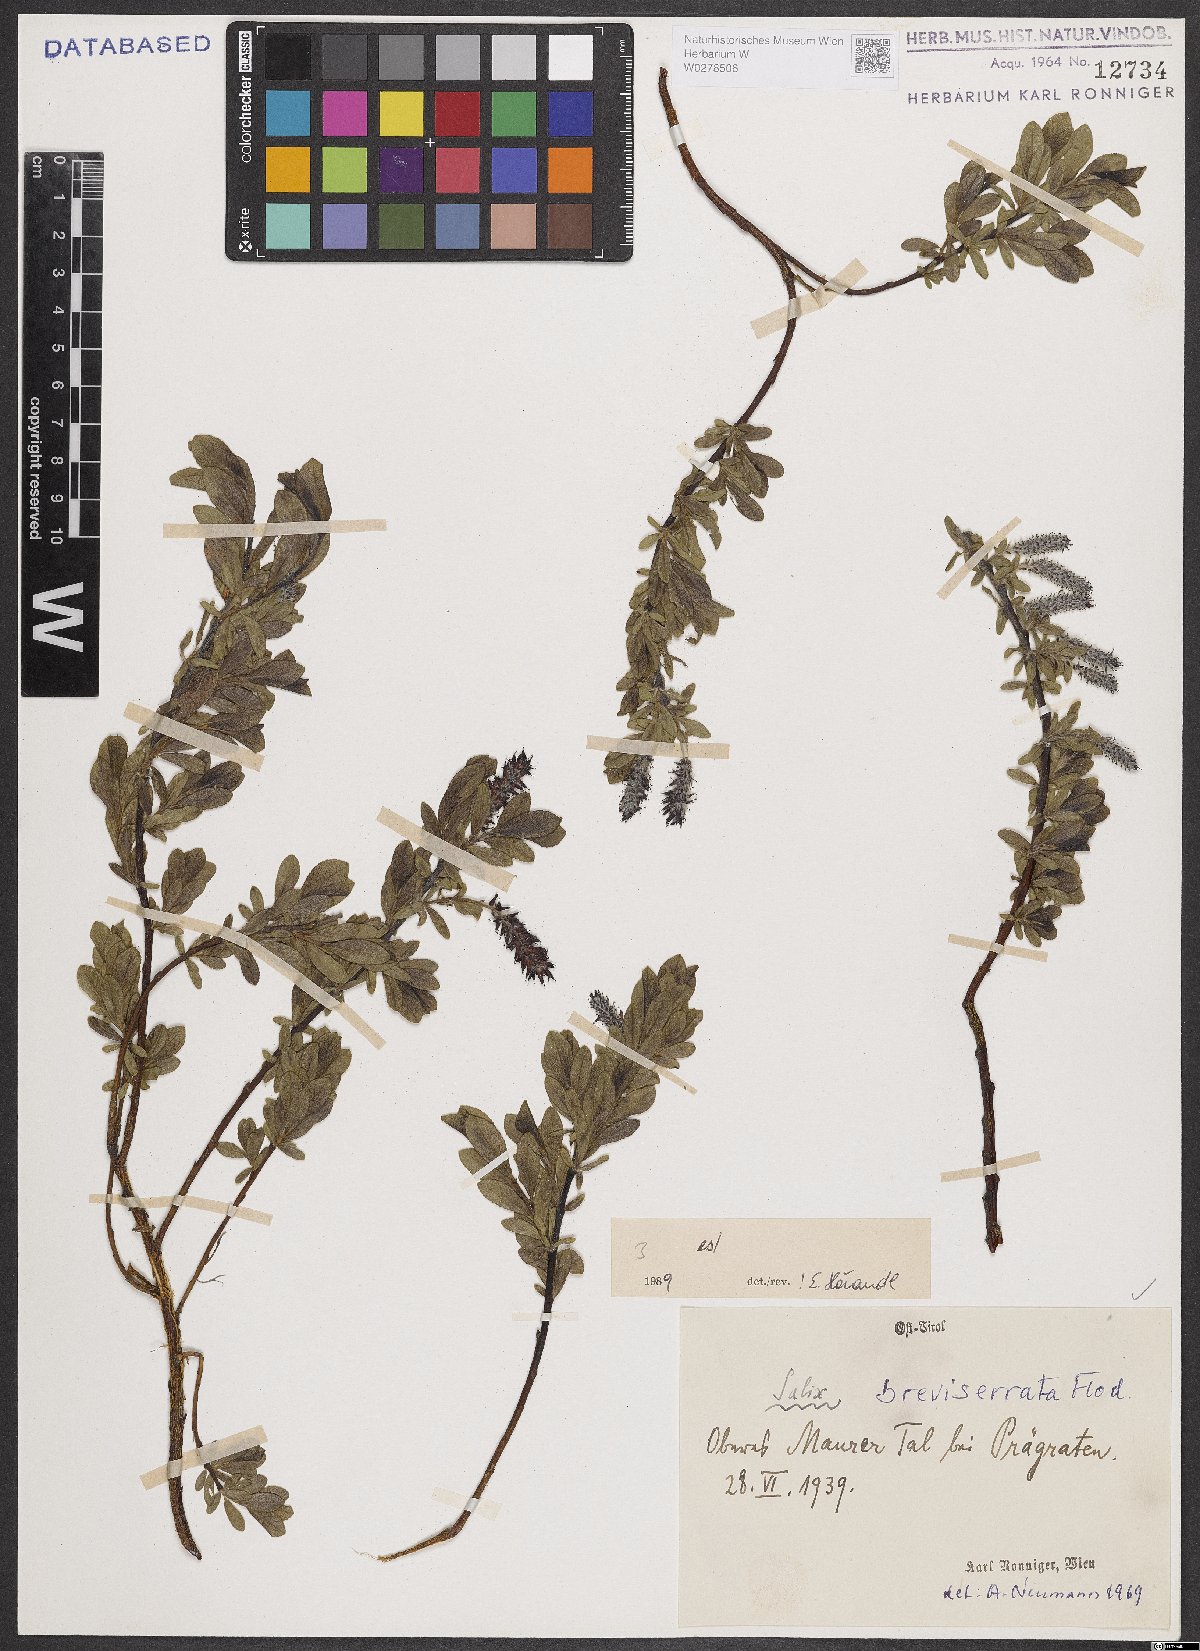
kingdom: Plantae
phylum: Tracheophyta
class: Magnoliopsida
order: Malpighiales
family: Salicaceae
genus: Salix
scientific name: Salix breviserrata
